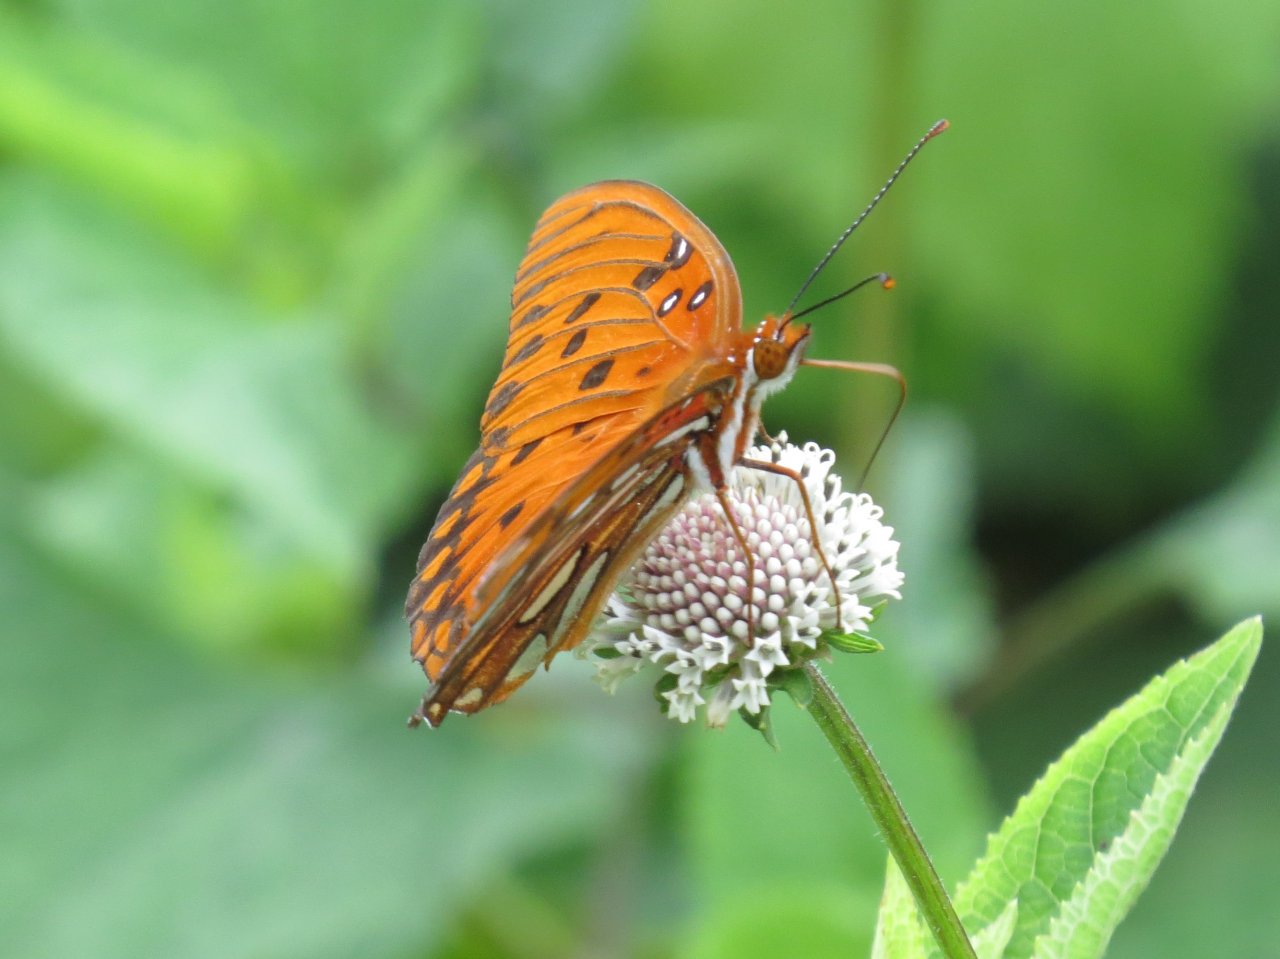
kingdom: Animalia
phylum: Arthropoda
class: Insecta
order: Lepidoptera
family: Nymphalidae
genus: Dione
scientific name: Dione vanillae
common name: Gulf Fritillary
